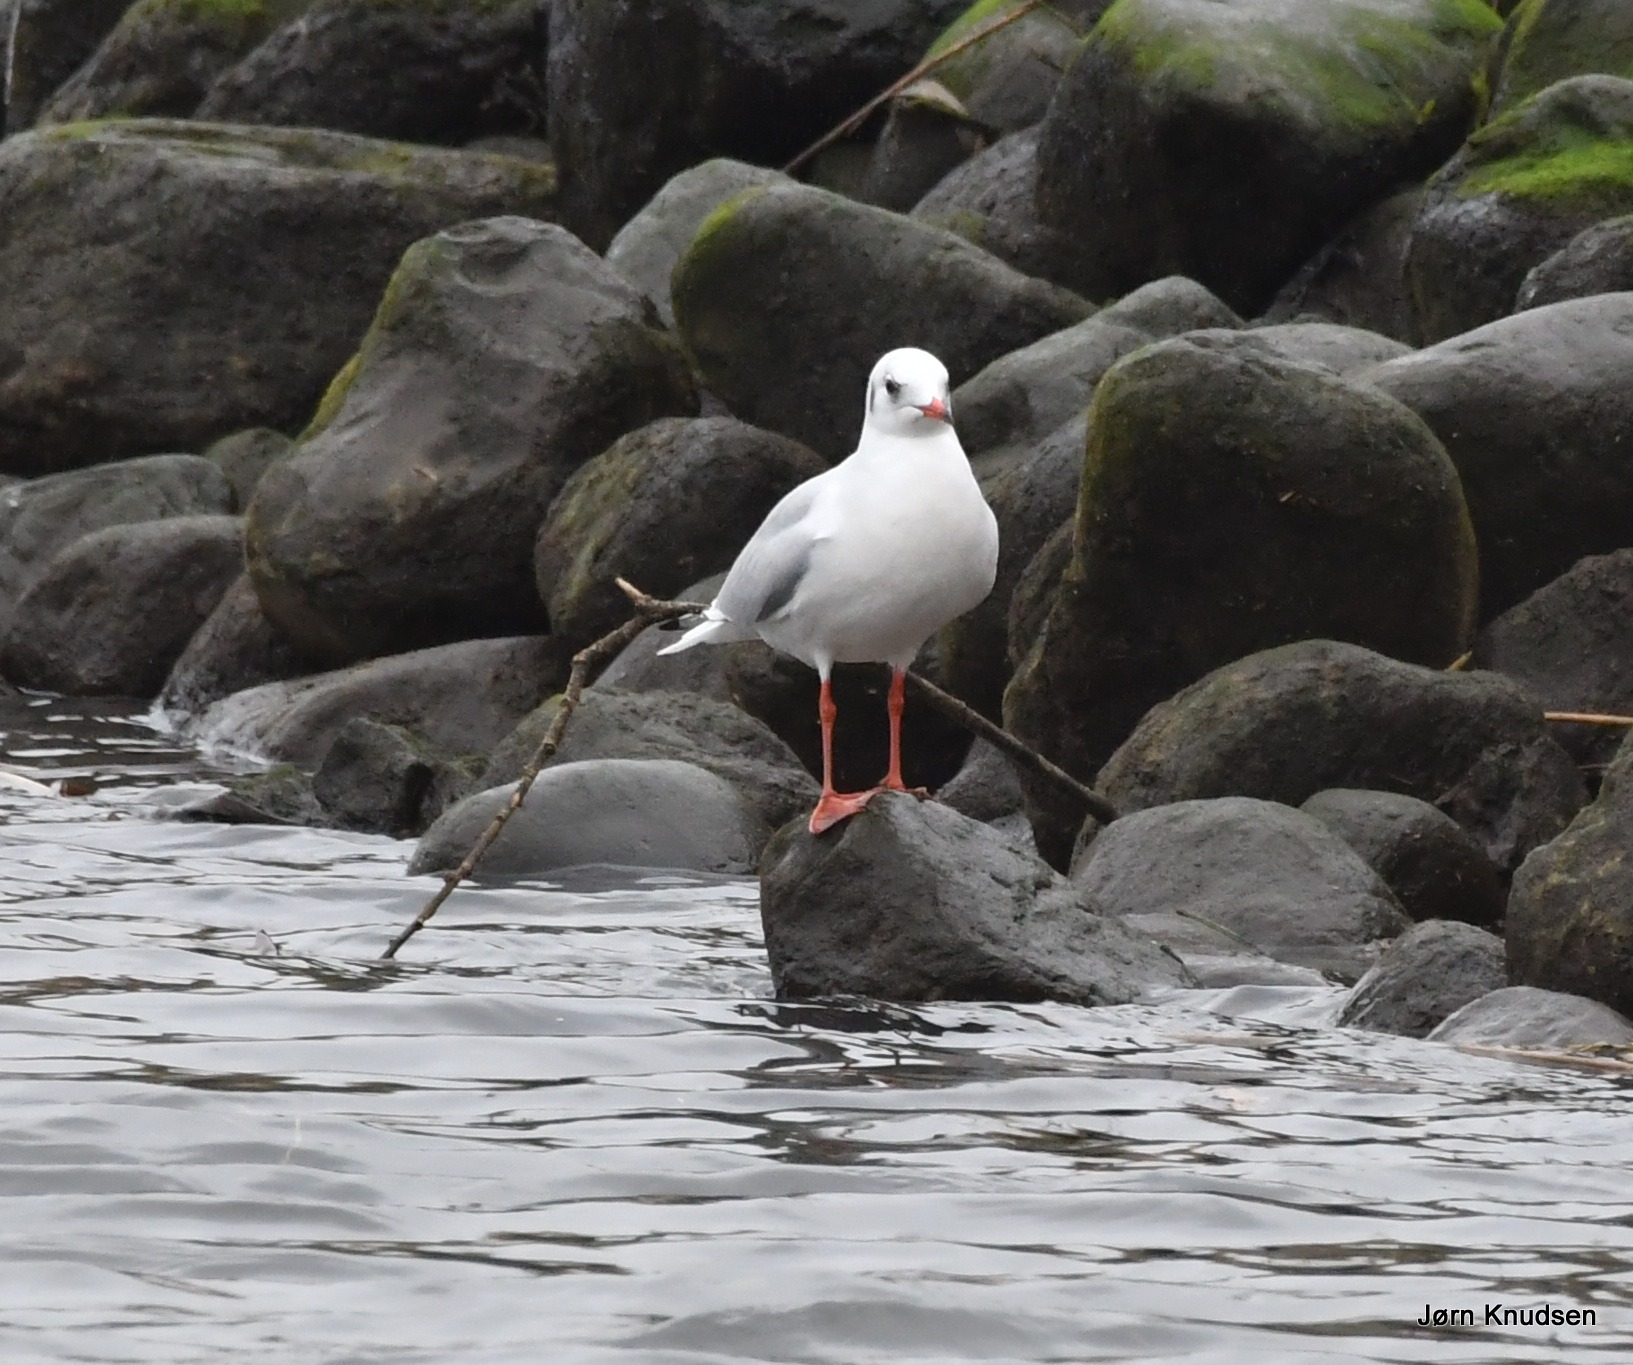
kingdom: Animalia
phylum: Chordata
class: Aves
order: Charadriiformes
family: Laridae
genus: Chroicocephalus
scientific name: Chroicocephalus ridibundus
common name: Hættemåge
